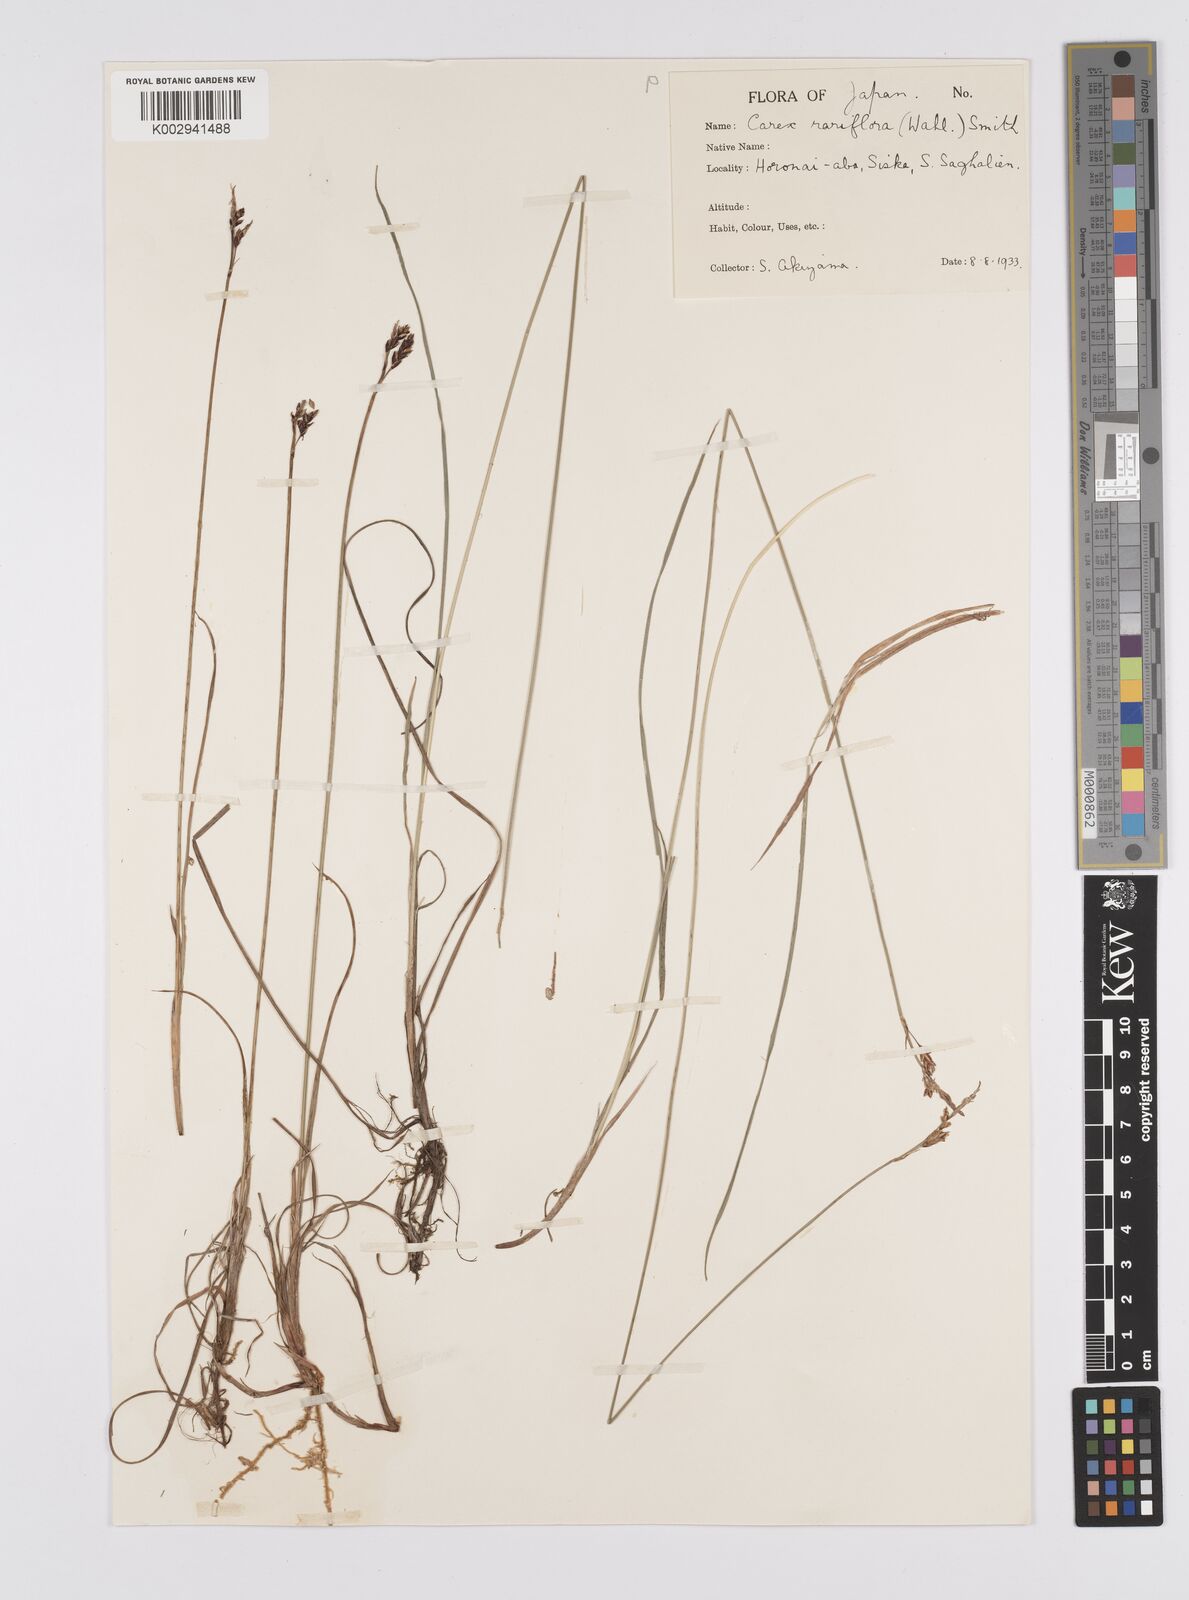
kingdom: Plantae
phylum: Tracheophyta
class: Liliopsida
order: Poales
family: Cyperaceae
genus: Carex
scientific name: Carex rariflora
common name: Loose-flowered alpine sedge
